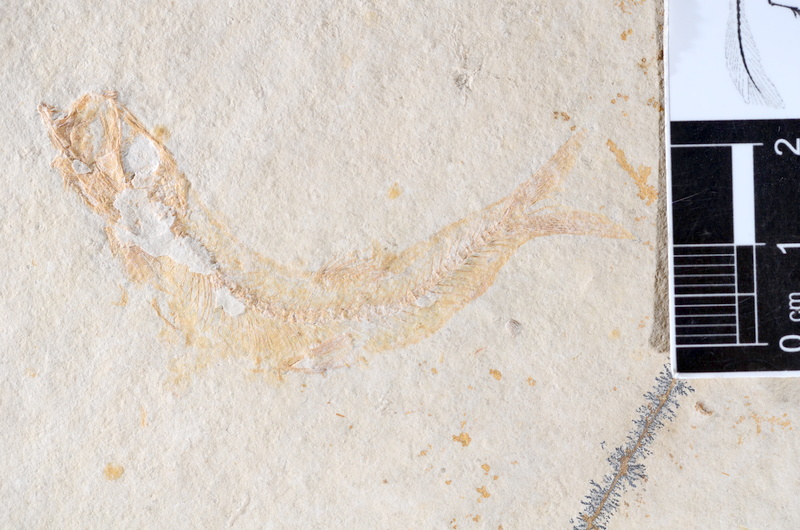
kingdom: Animalia
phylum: Chordata
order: Salmoniformes
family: Orthogonikleithridae
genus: Leptolepides
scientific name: Leptolepides sprattiformis
